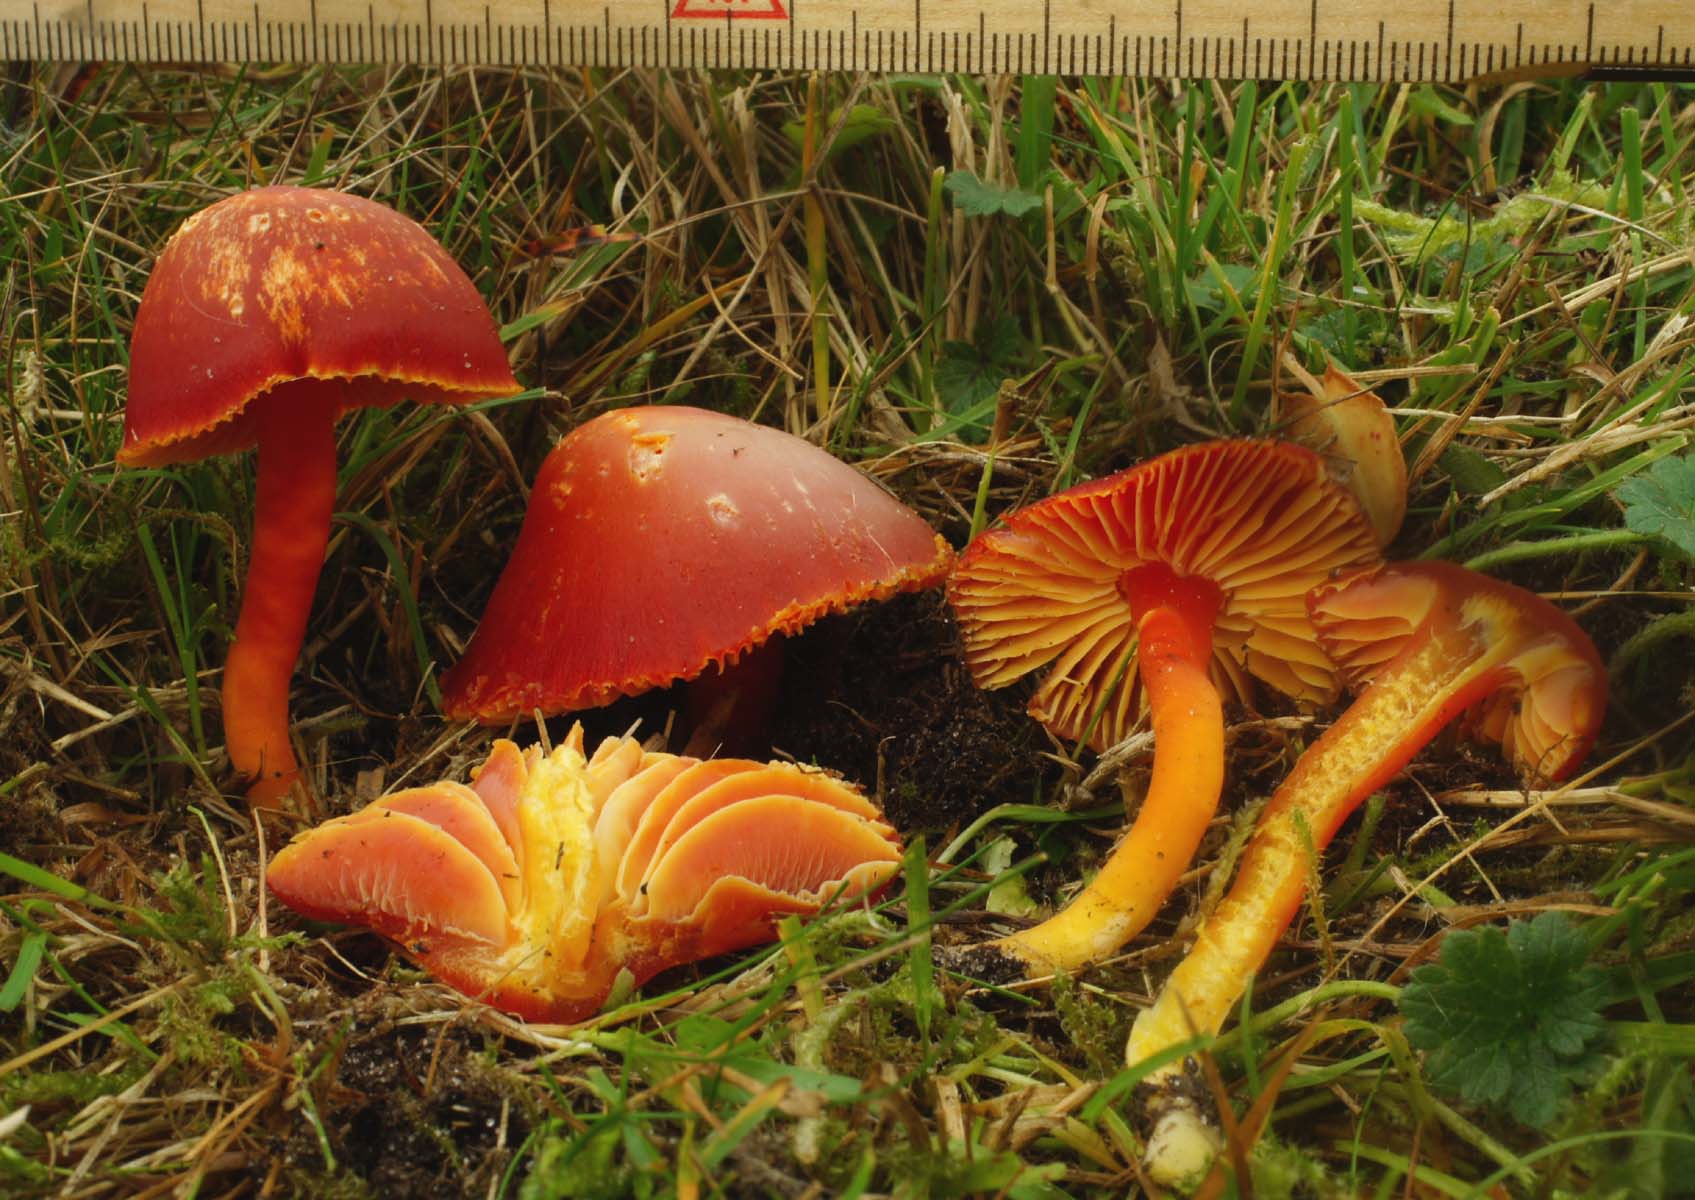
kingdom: Fungi
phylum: Basidiomycota
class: Agaricomycetes
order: Agaricales
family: Hygrophoraceae
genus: Hygrocybe
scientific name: Hygrocybe coccinea
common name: cinnober-vokshat
